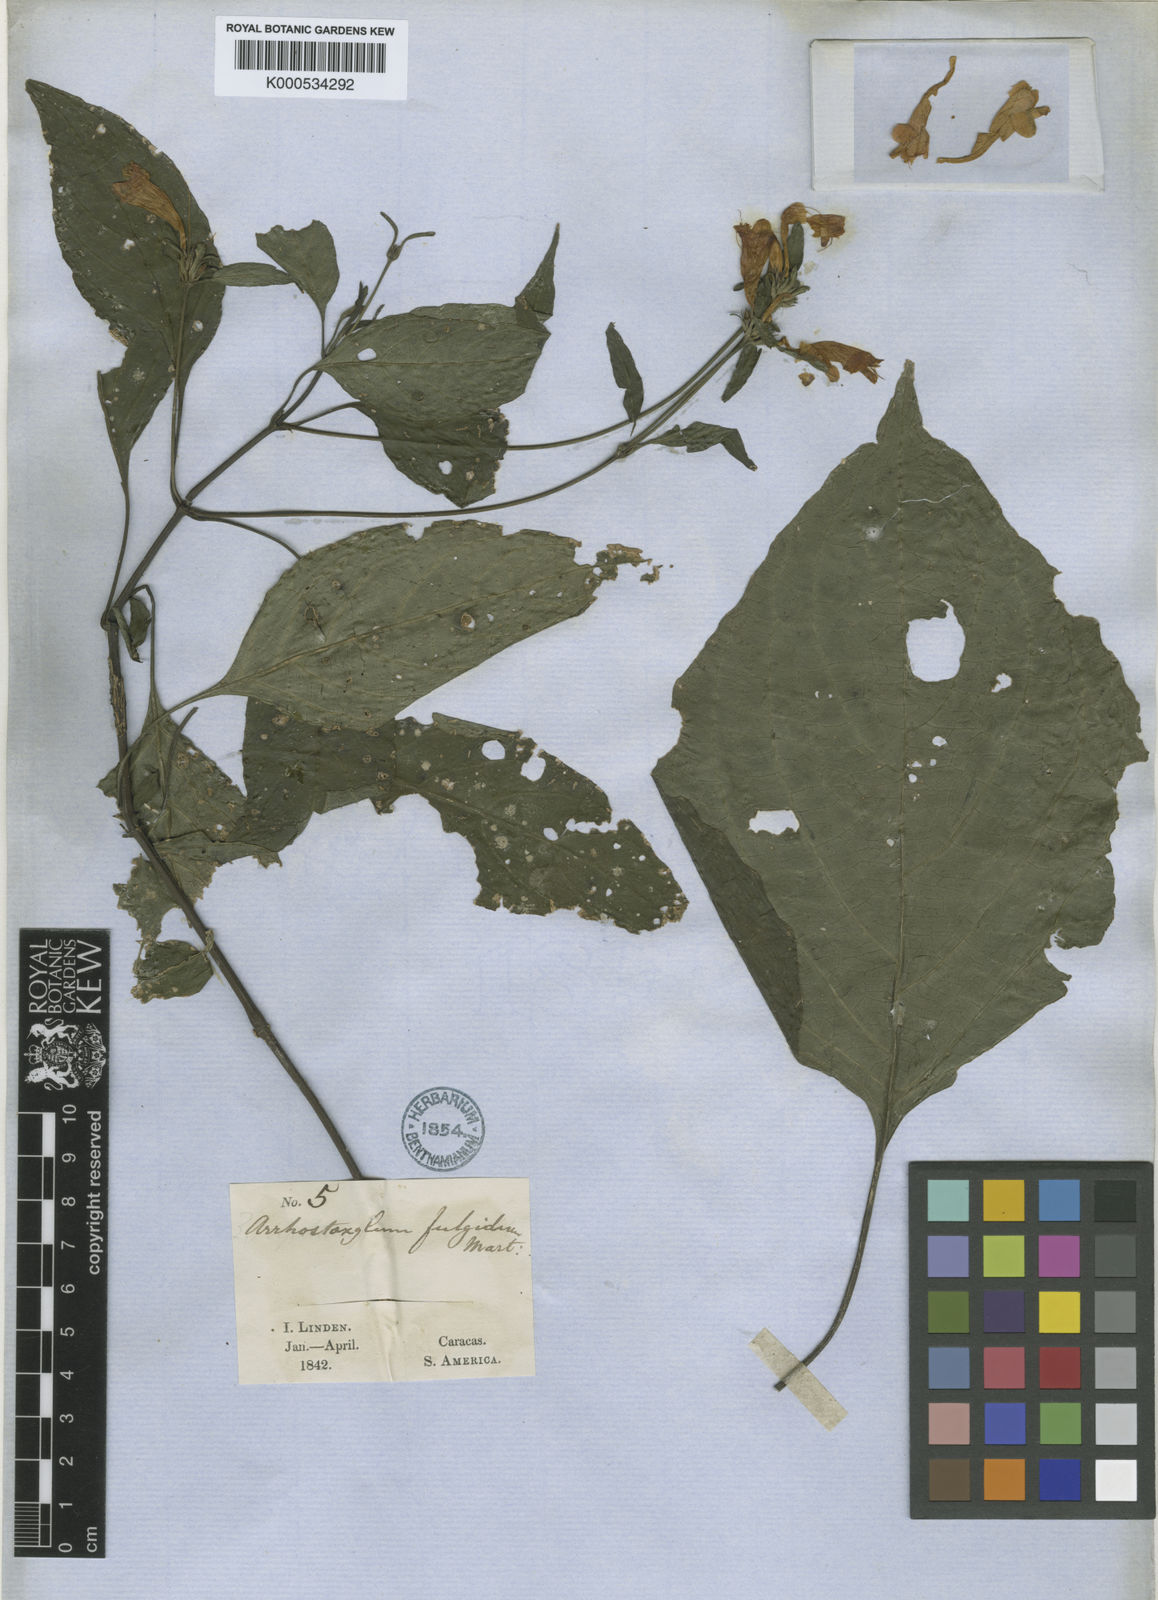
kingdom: Plantae
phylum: Tracheophyta
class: Magnoliopsida
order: Lamiales
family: Acanthaceae
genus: Ruellia
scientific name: Ruellia fulgida
